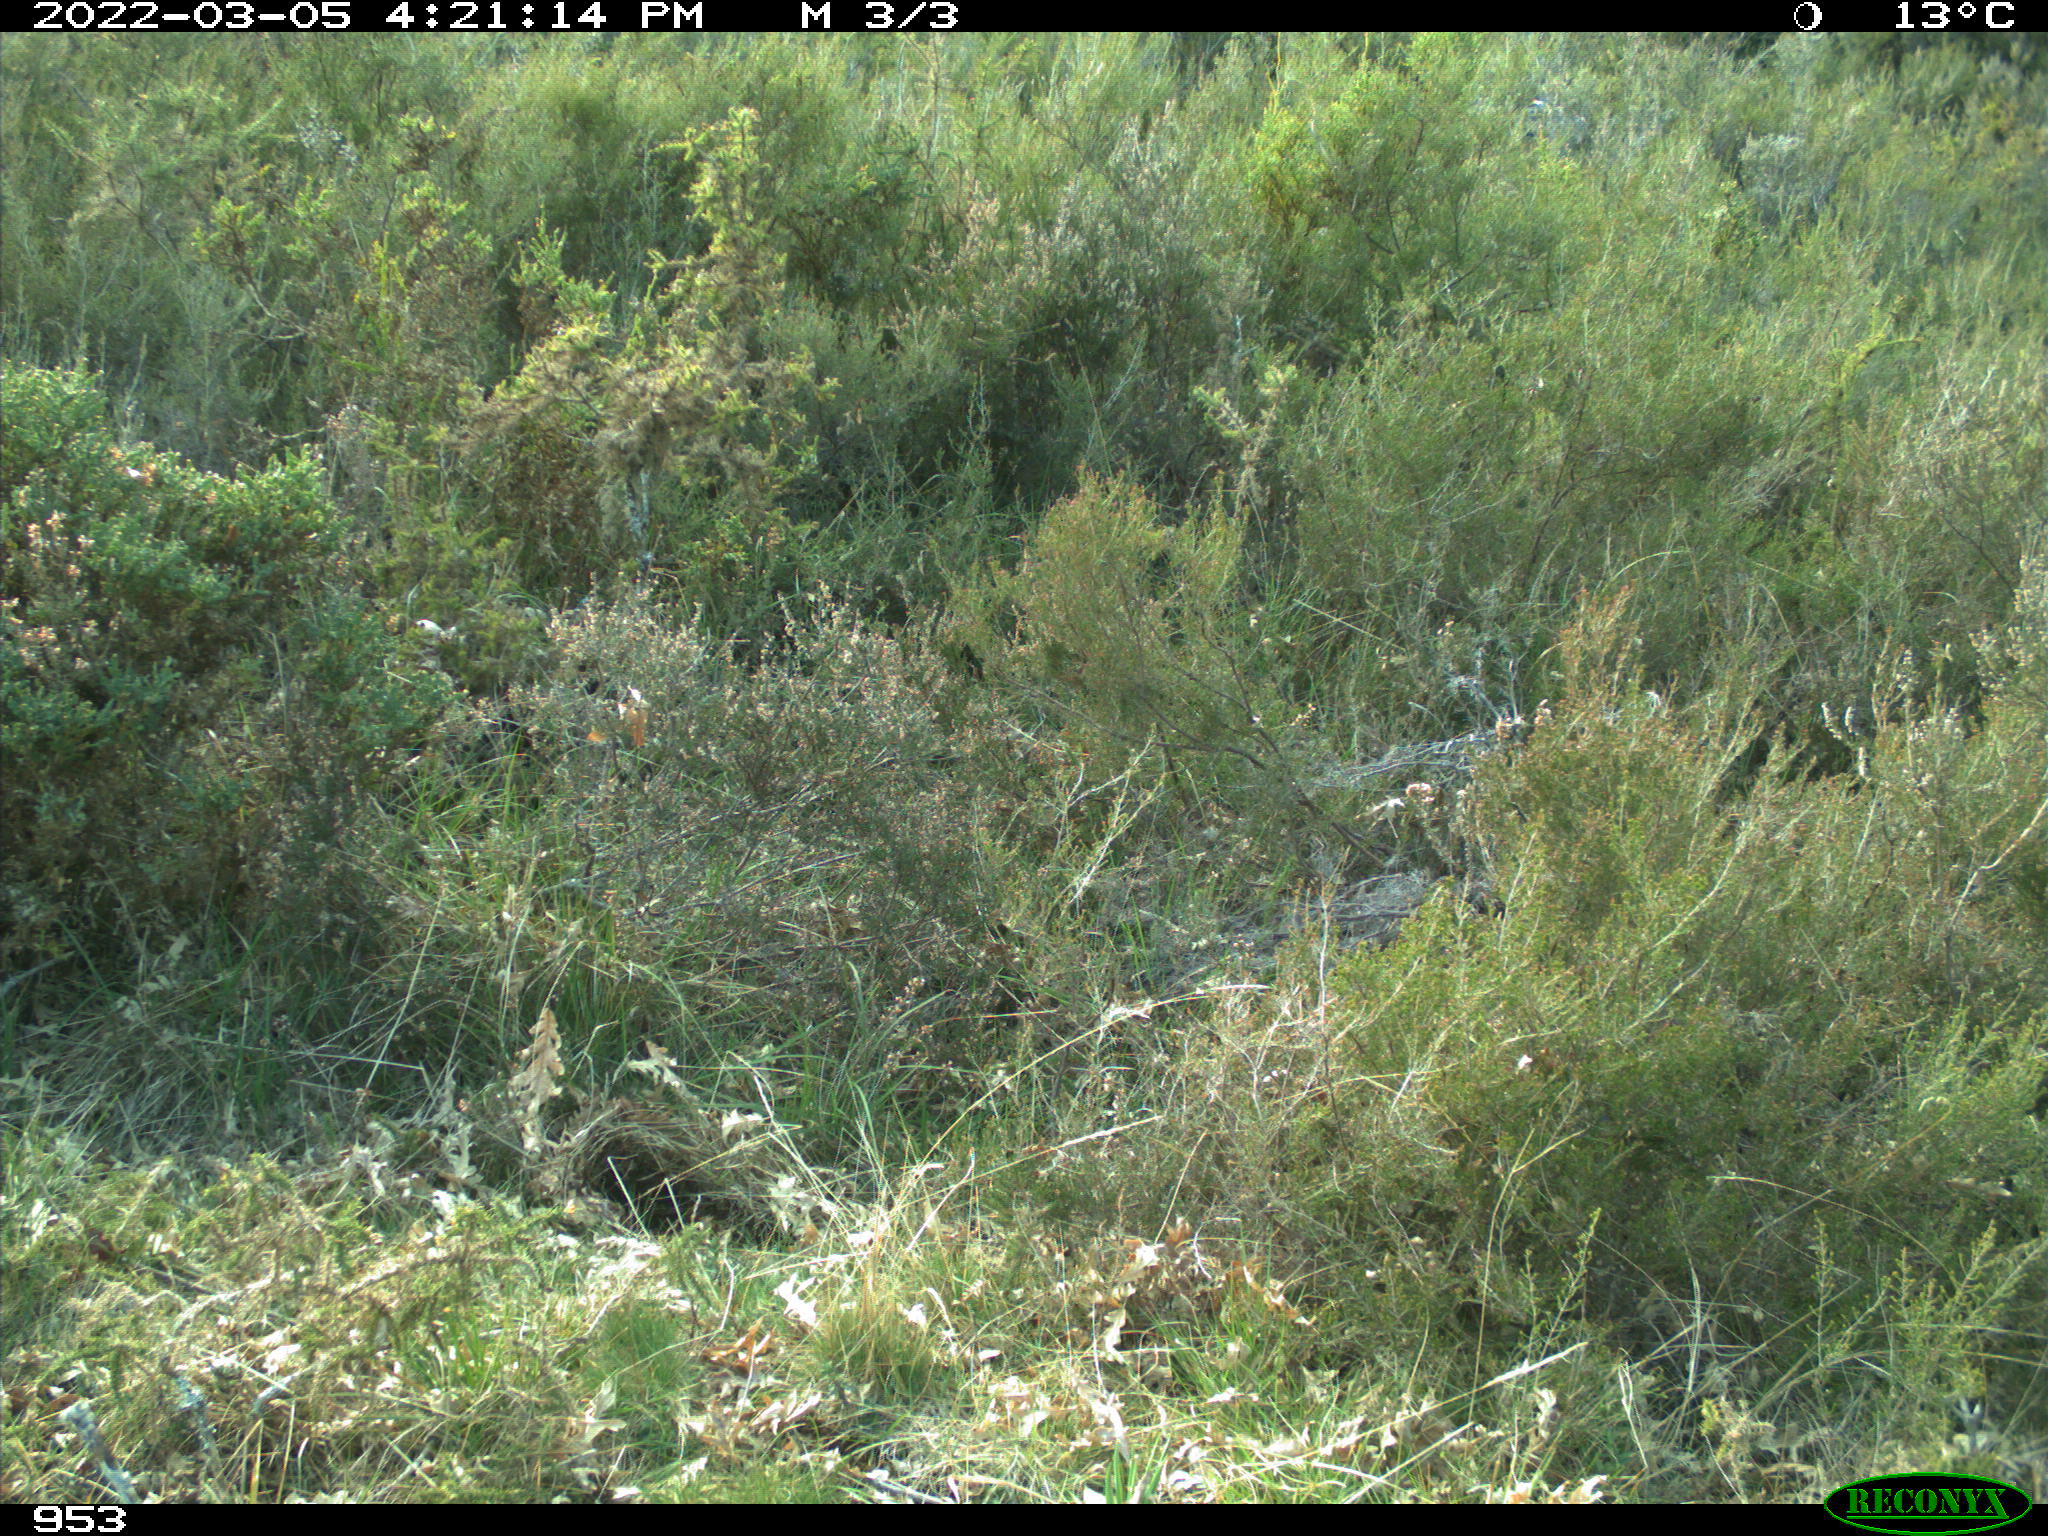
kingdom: Animalia
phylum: Chordata
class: Mammalia
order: Artiodactyla
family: Suidae
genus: Sus
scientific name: Sus scrofa
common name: Wild boar
